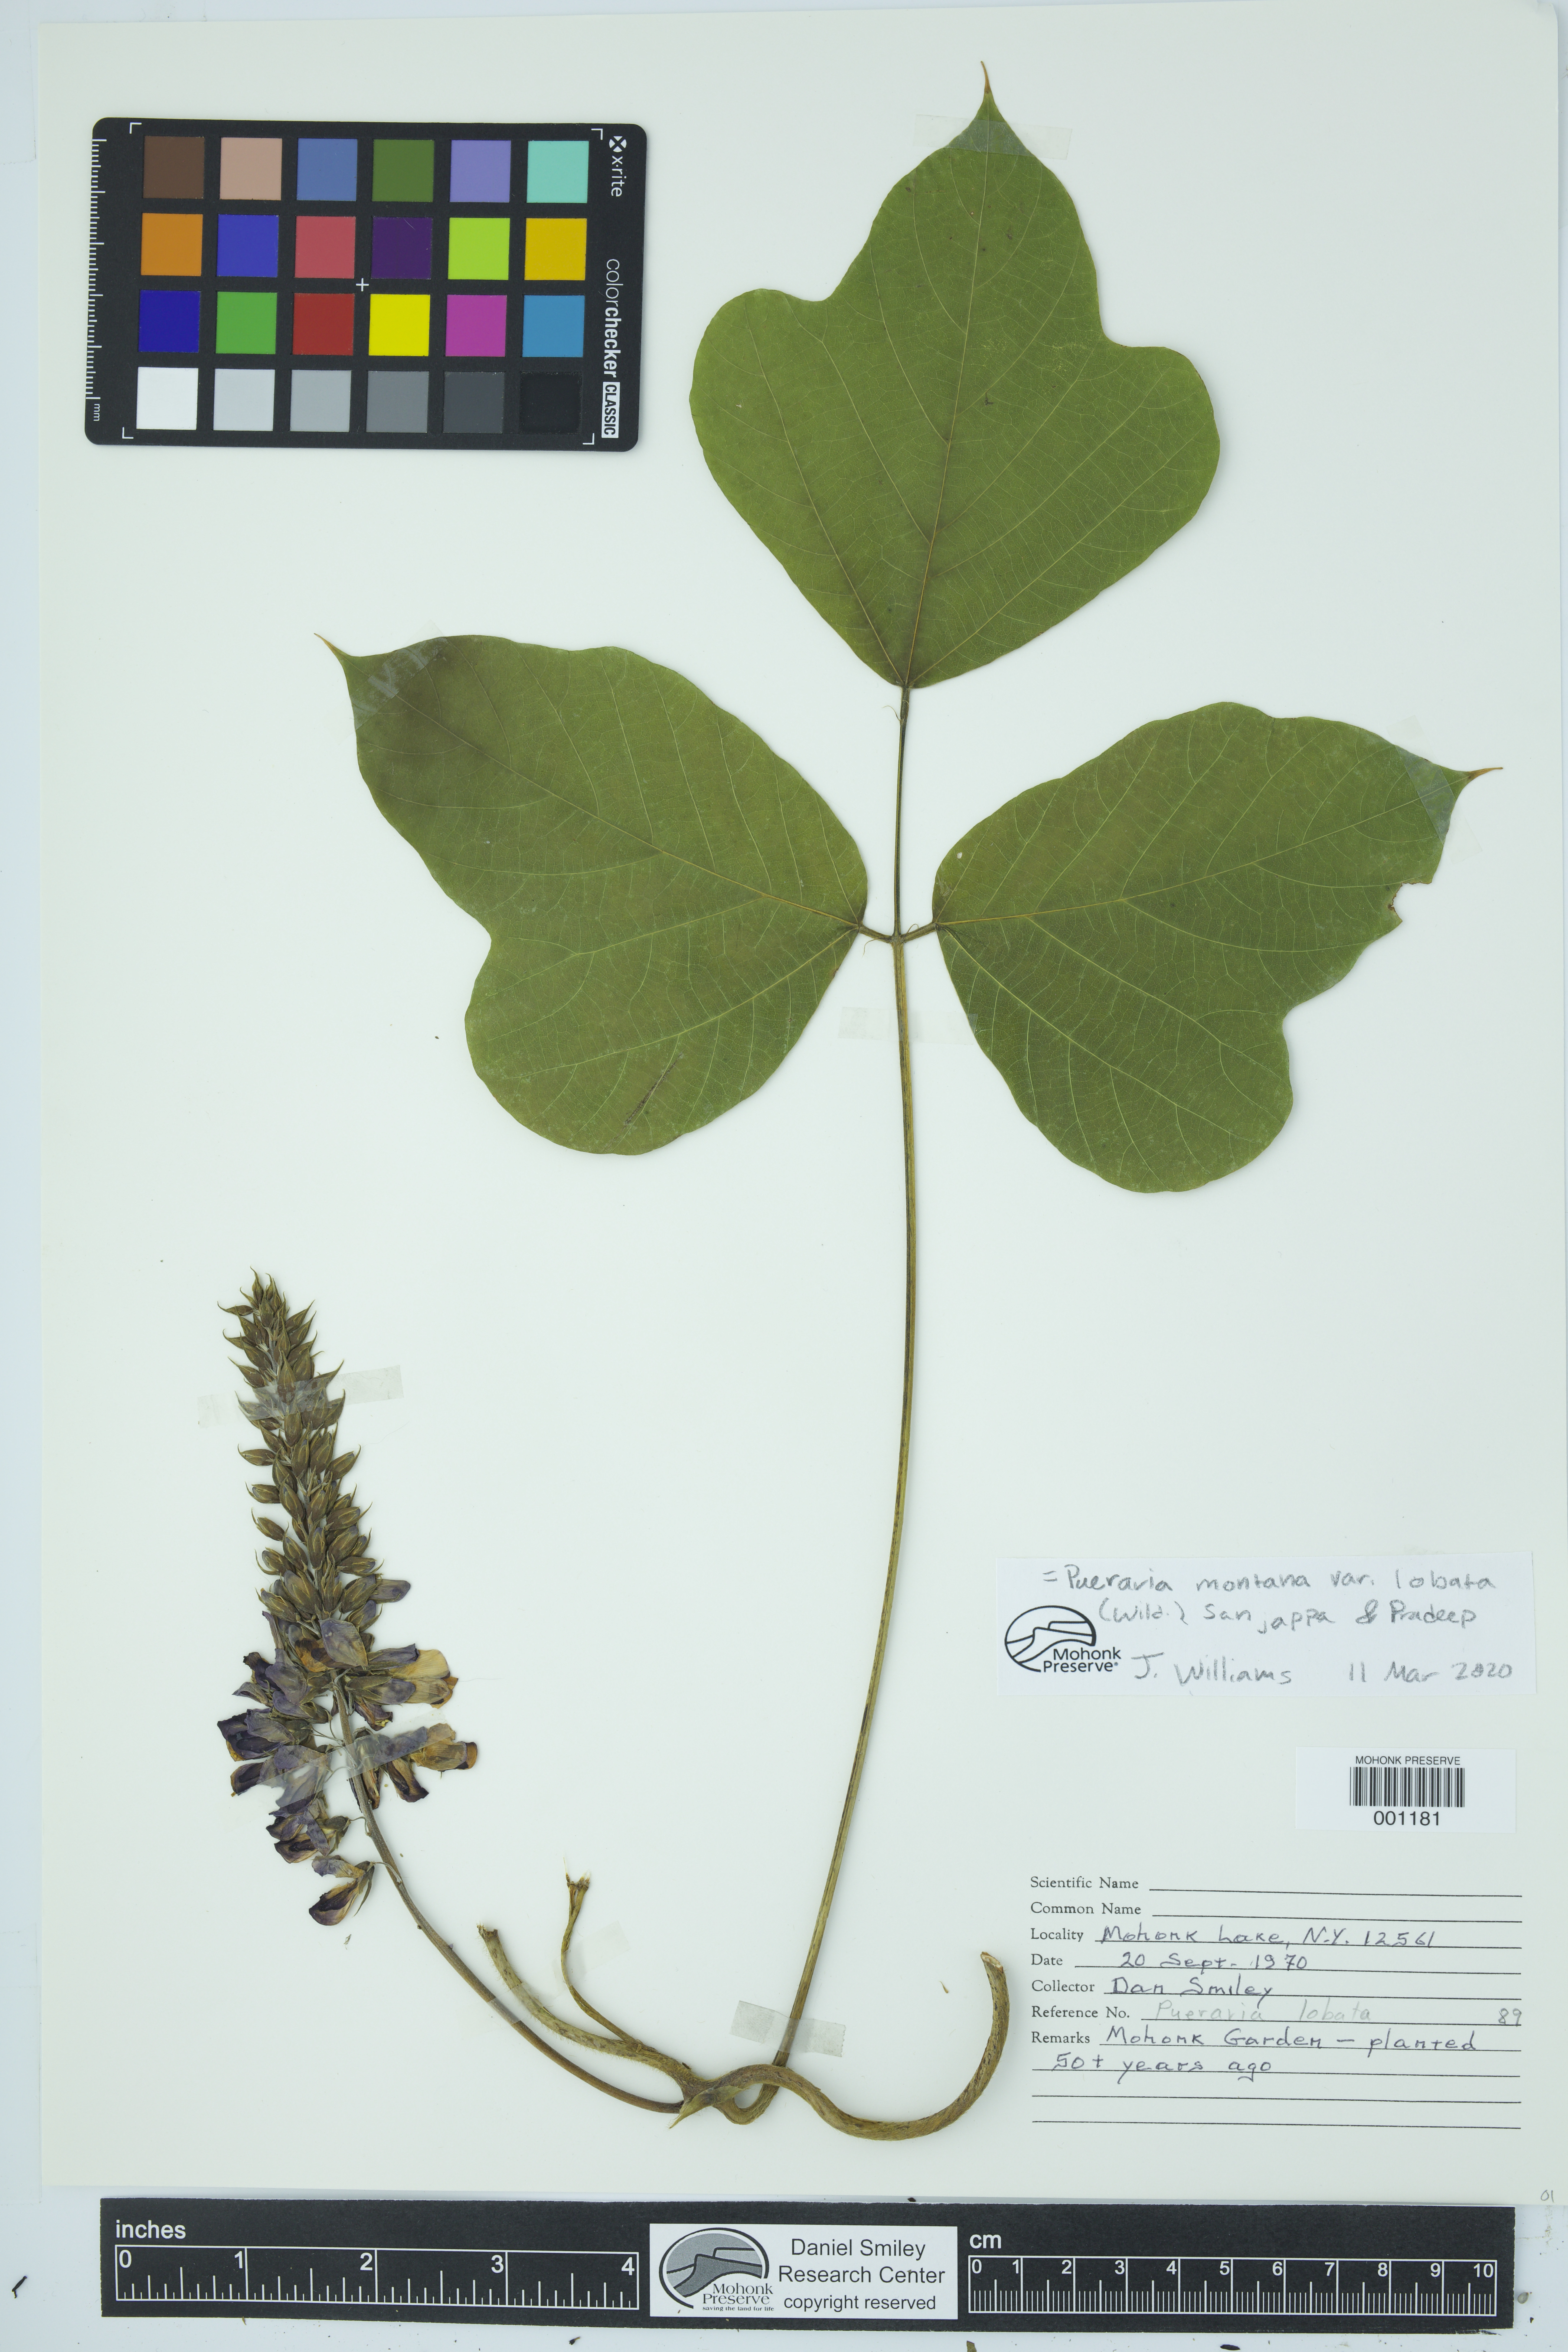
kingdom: Plantae
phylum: Tracheophyta
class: Magnoliopsida
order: Fabales
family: Fabaceae
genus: Pueraria
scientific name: Pueraria montana
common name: Kudzu
